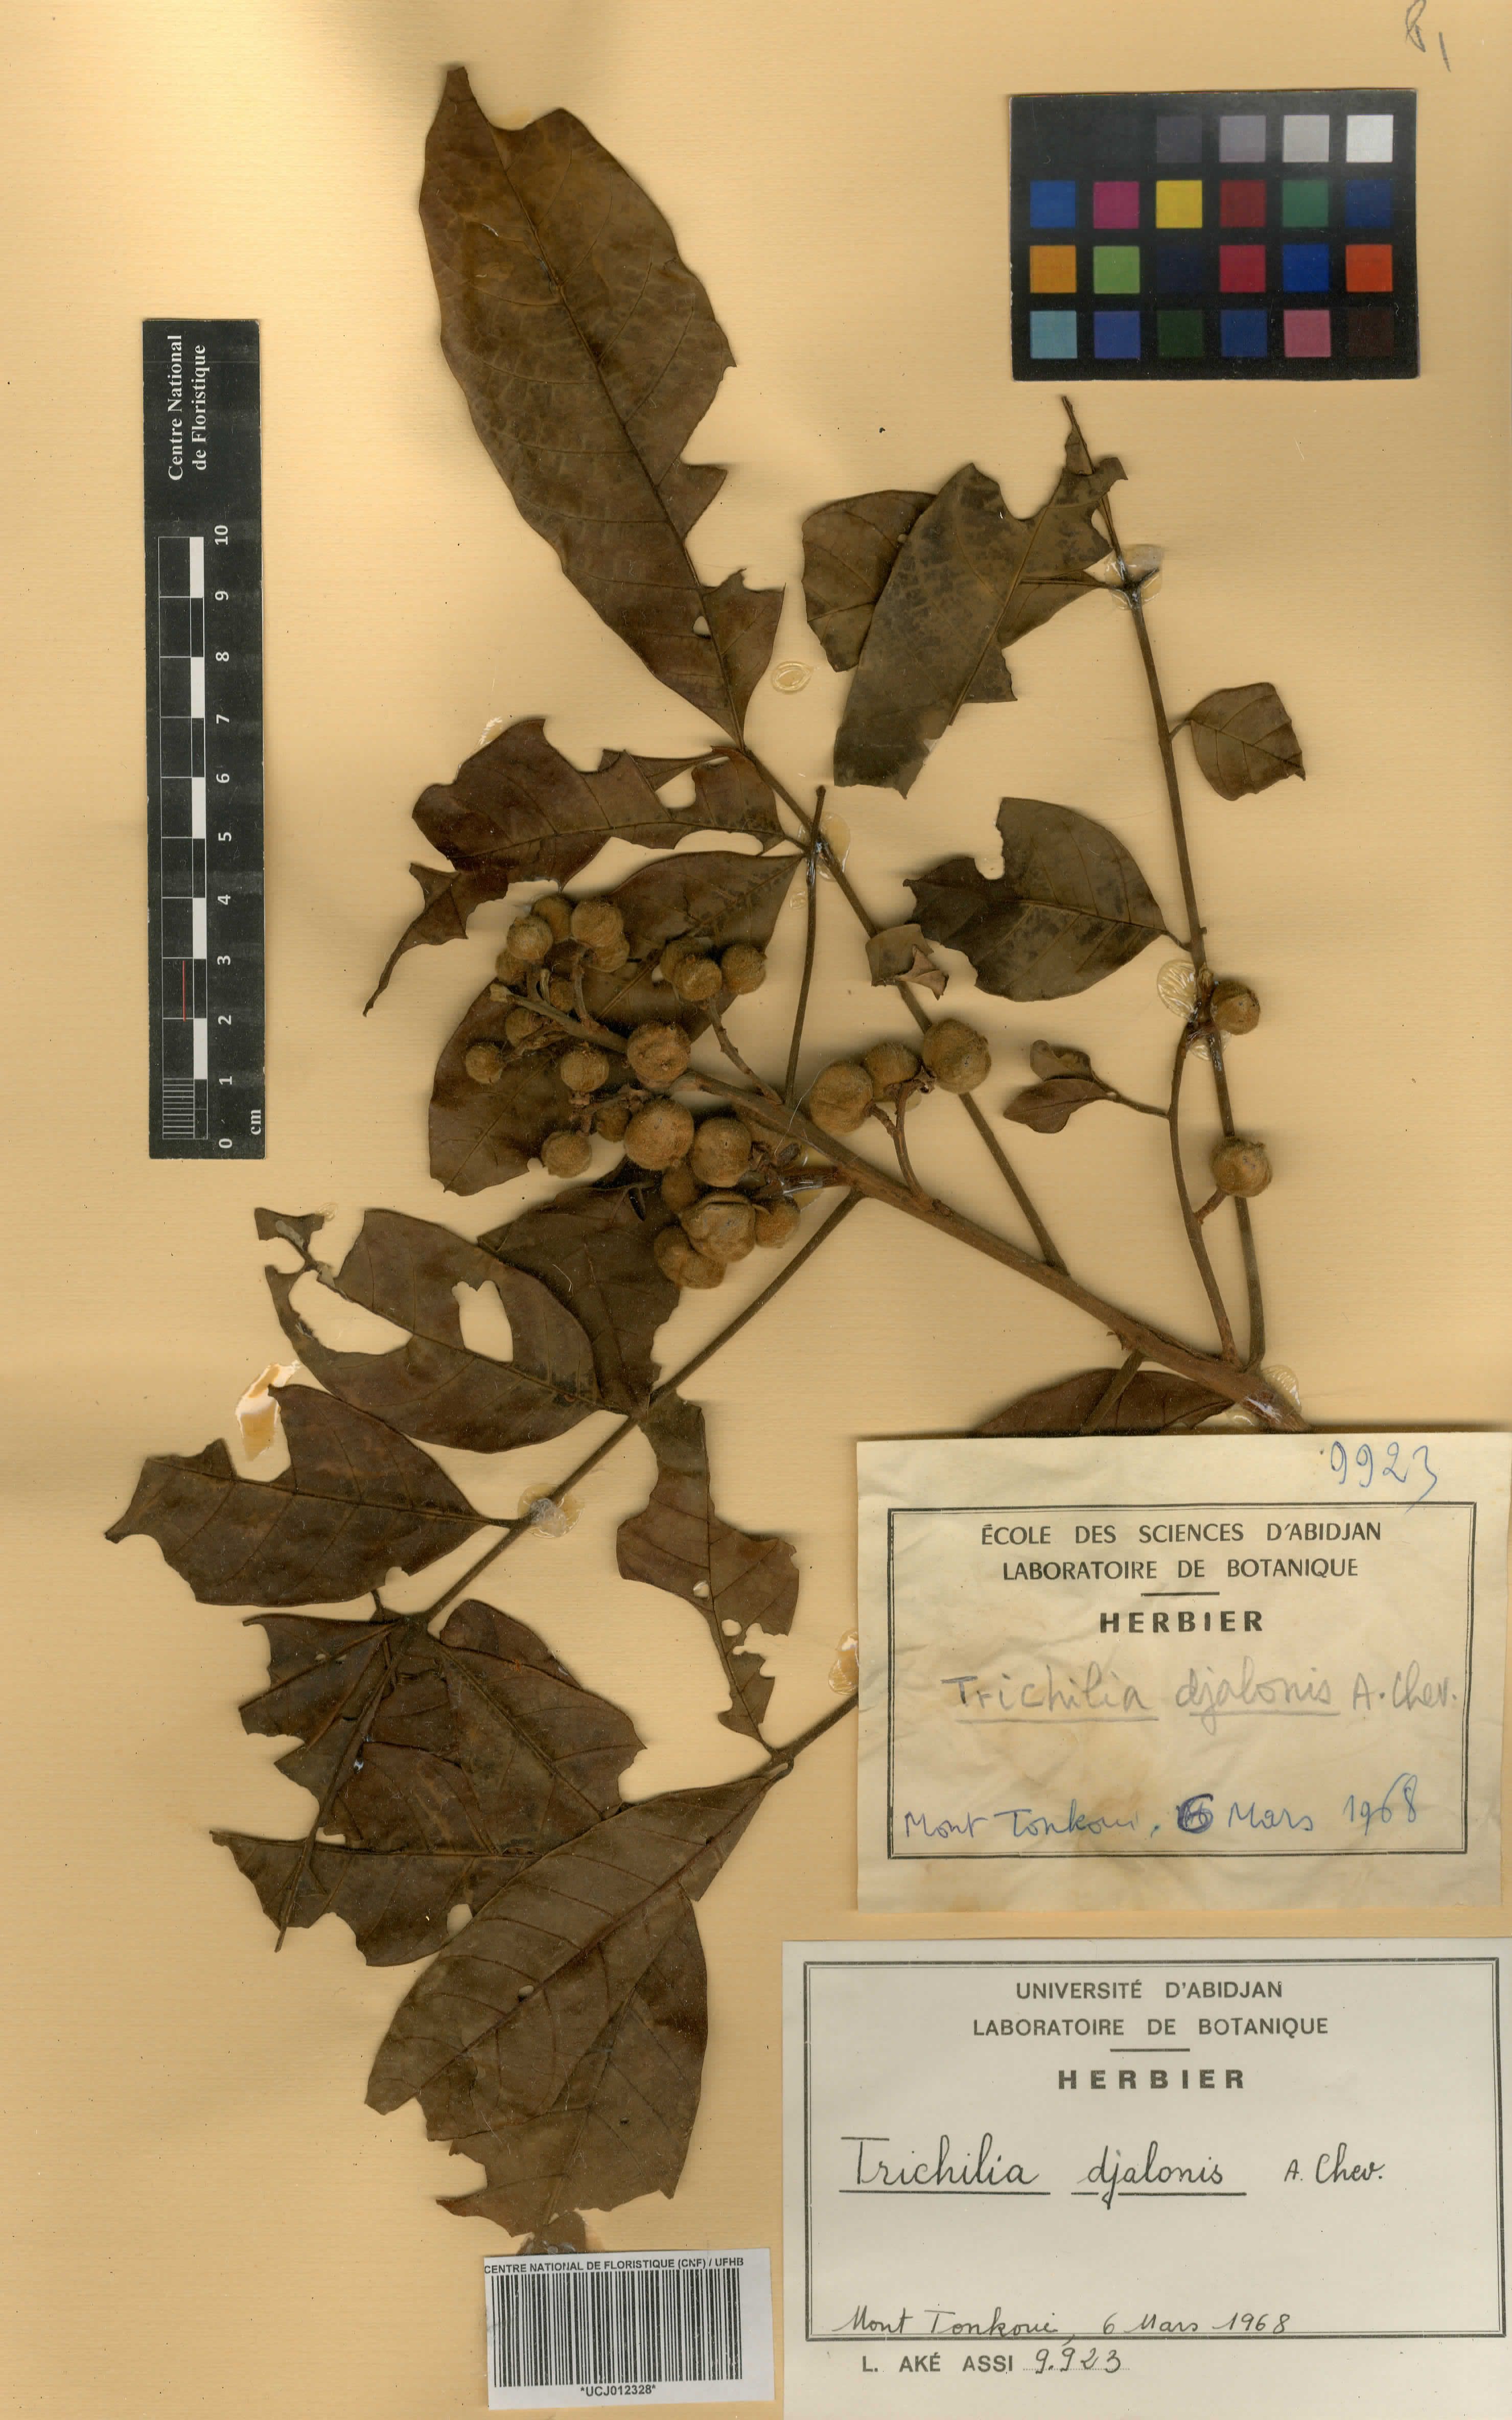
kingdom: Plantae
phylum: Tracheophyta
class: Magnoliopsida
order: Sapindales
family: Meliaceae
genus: Trichilia
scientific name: Trichilia djalonis
